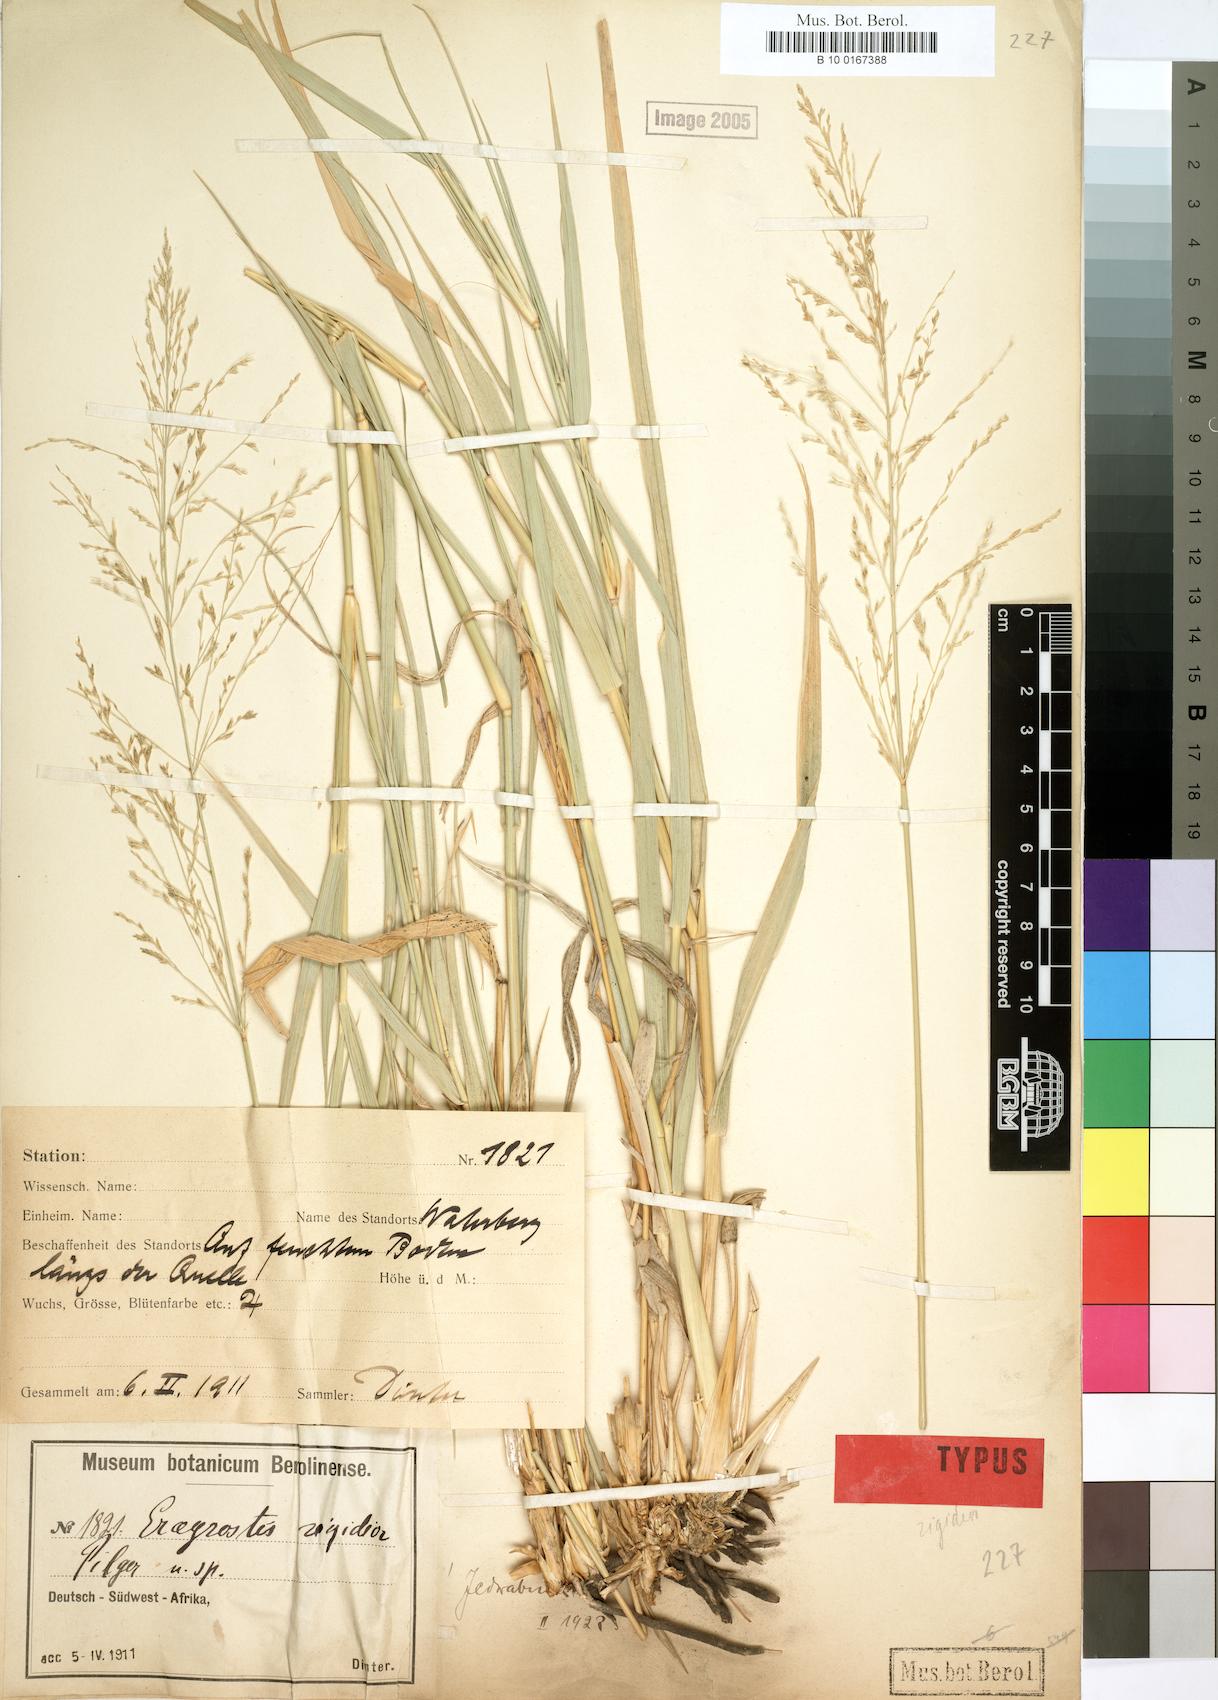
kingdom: Plantae
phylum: Tracheophyta
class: Liliopsida
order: Poales
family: Poaceae
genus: Eragrostis
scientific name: Eragrostis cylindriflora
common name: Cylinderflower lovegrass
